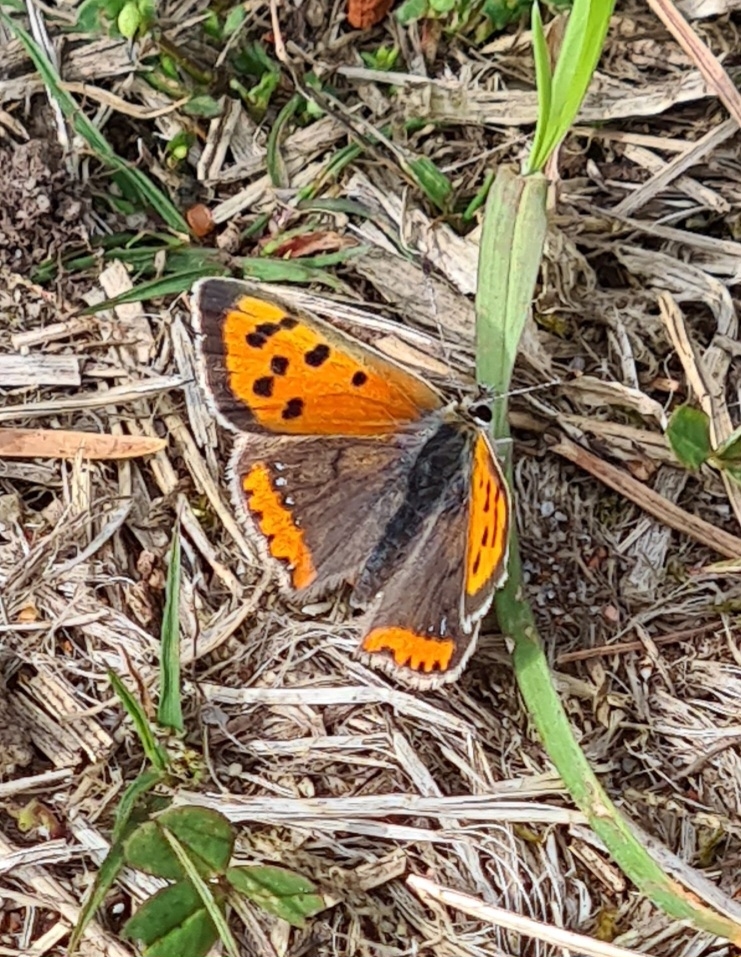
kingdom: Animalia
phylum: Arthropoda
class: Insecta
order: Lepidoptera
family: Lycaenidae
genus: Lycaena
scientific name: Lycaena phlaeas
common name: Lille ildfugl
